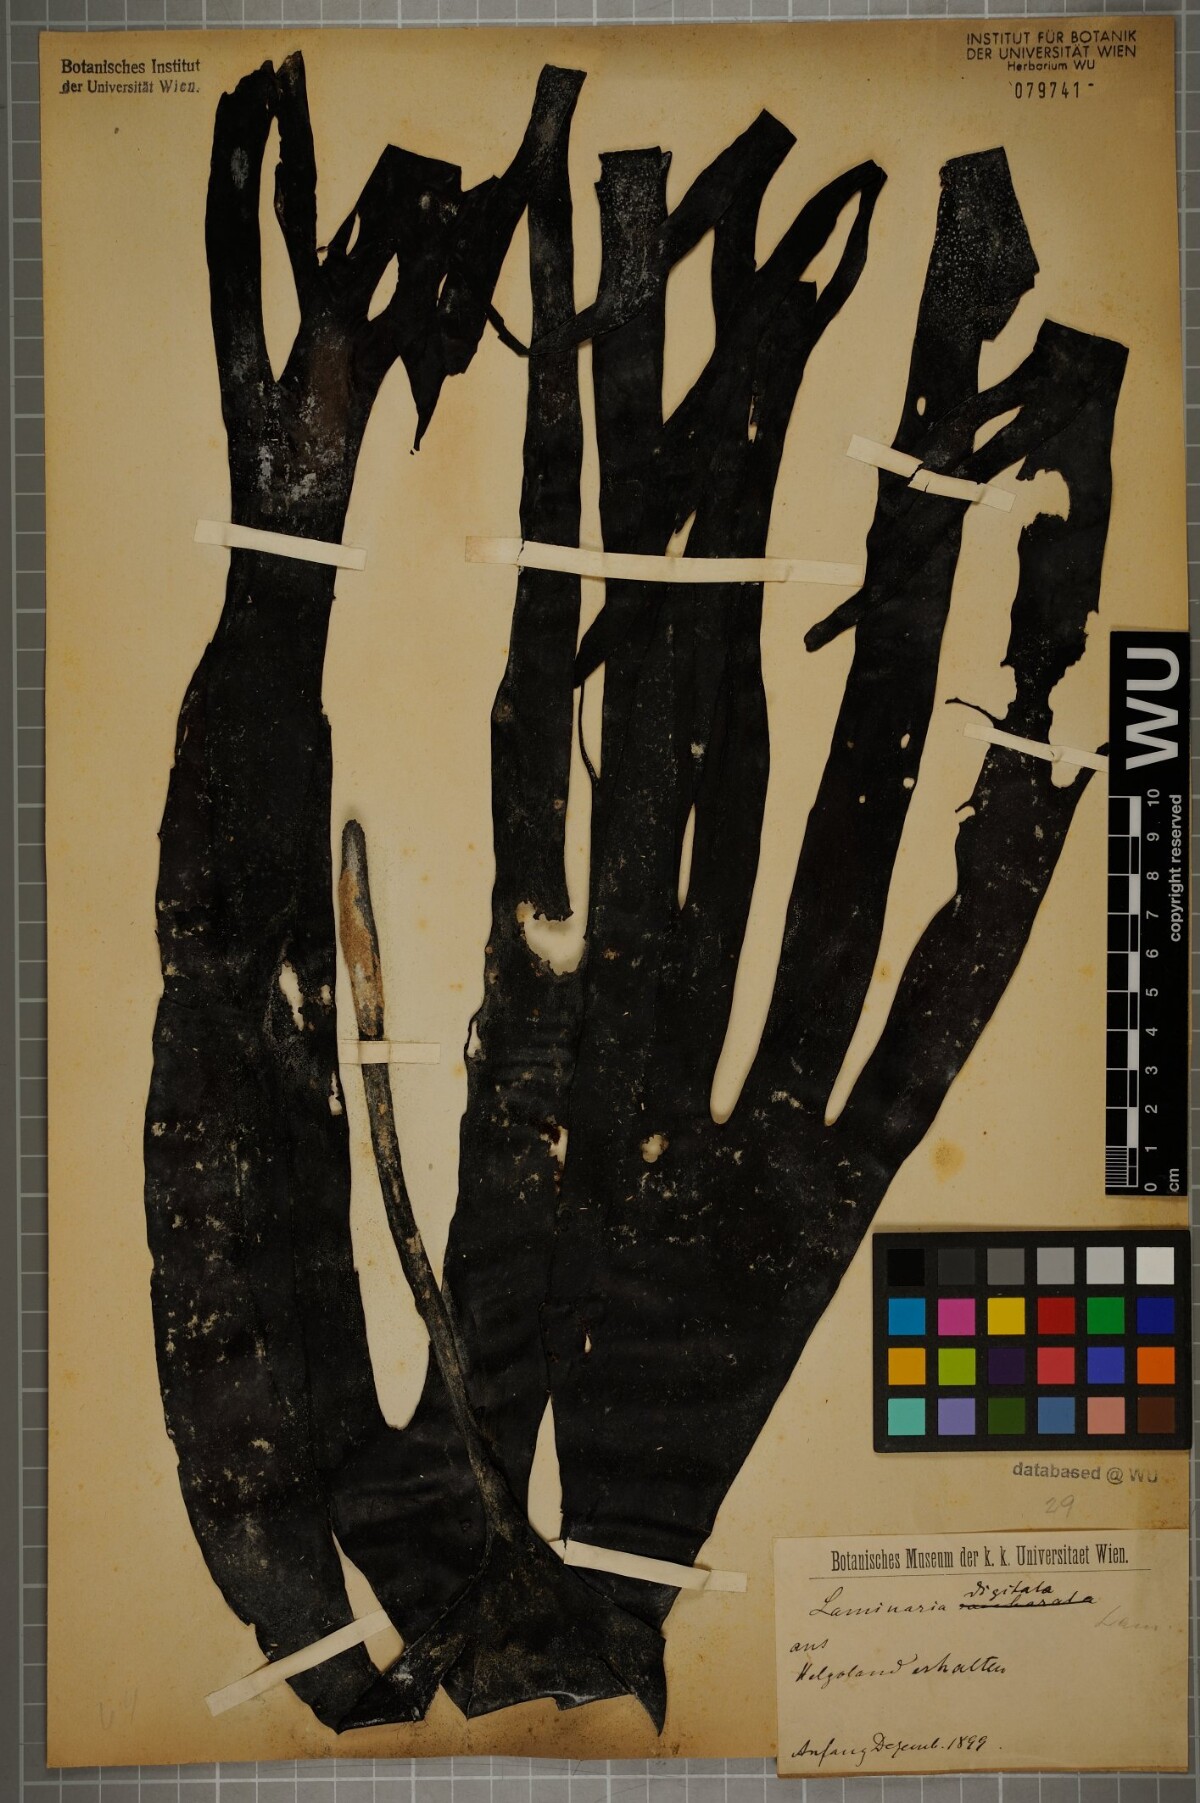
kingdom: Chromista
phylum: Ochrophyta
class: Phaeophyceae
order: Laminariales
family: Laminariaceae
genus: Laminaria
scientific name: Laminaria digitata
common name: Oarweed
